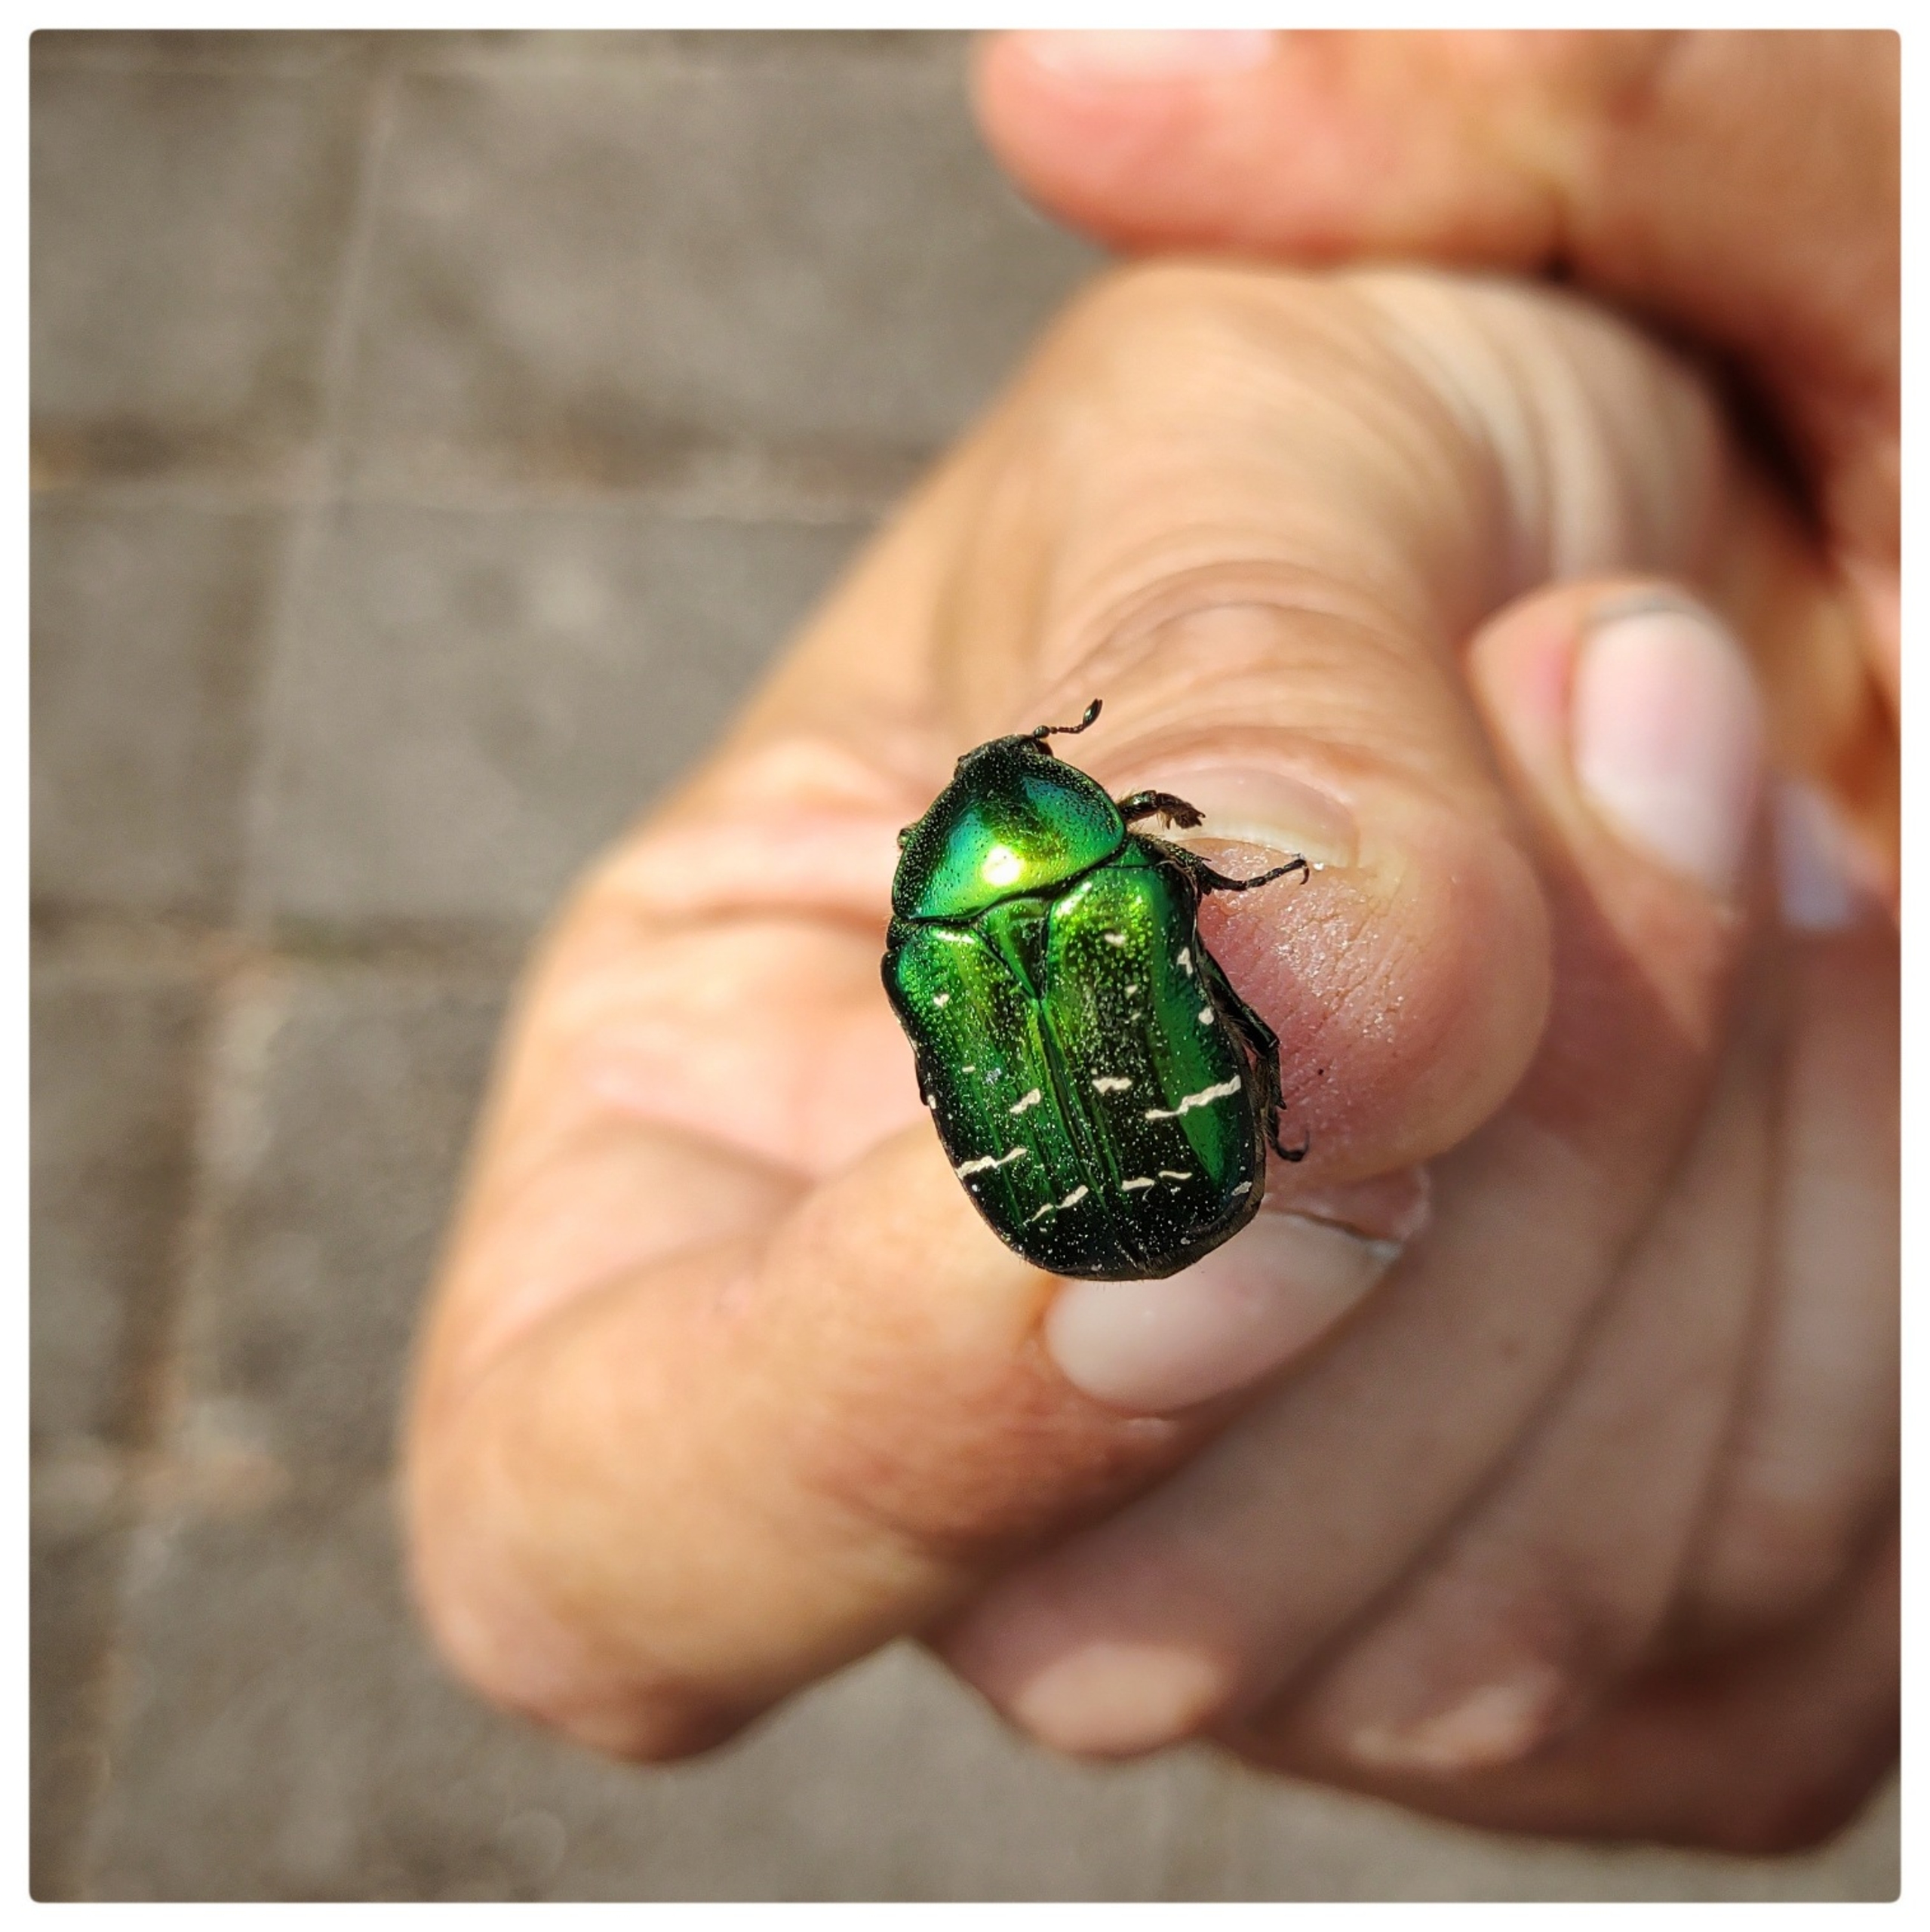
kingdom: Animalia
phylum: Arthropoda
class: Insecta
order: Coleoptera
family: Scarabaeidae
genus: Cetonia
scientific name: Cetonia aurata
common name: Grøn guldbasse
